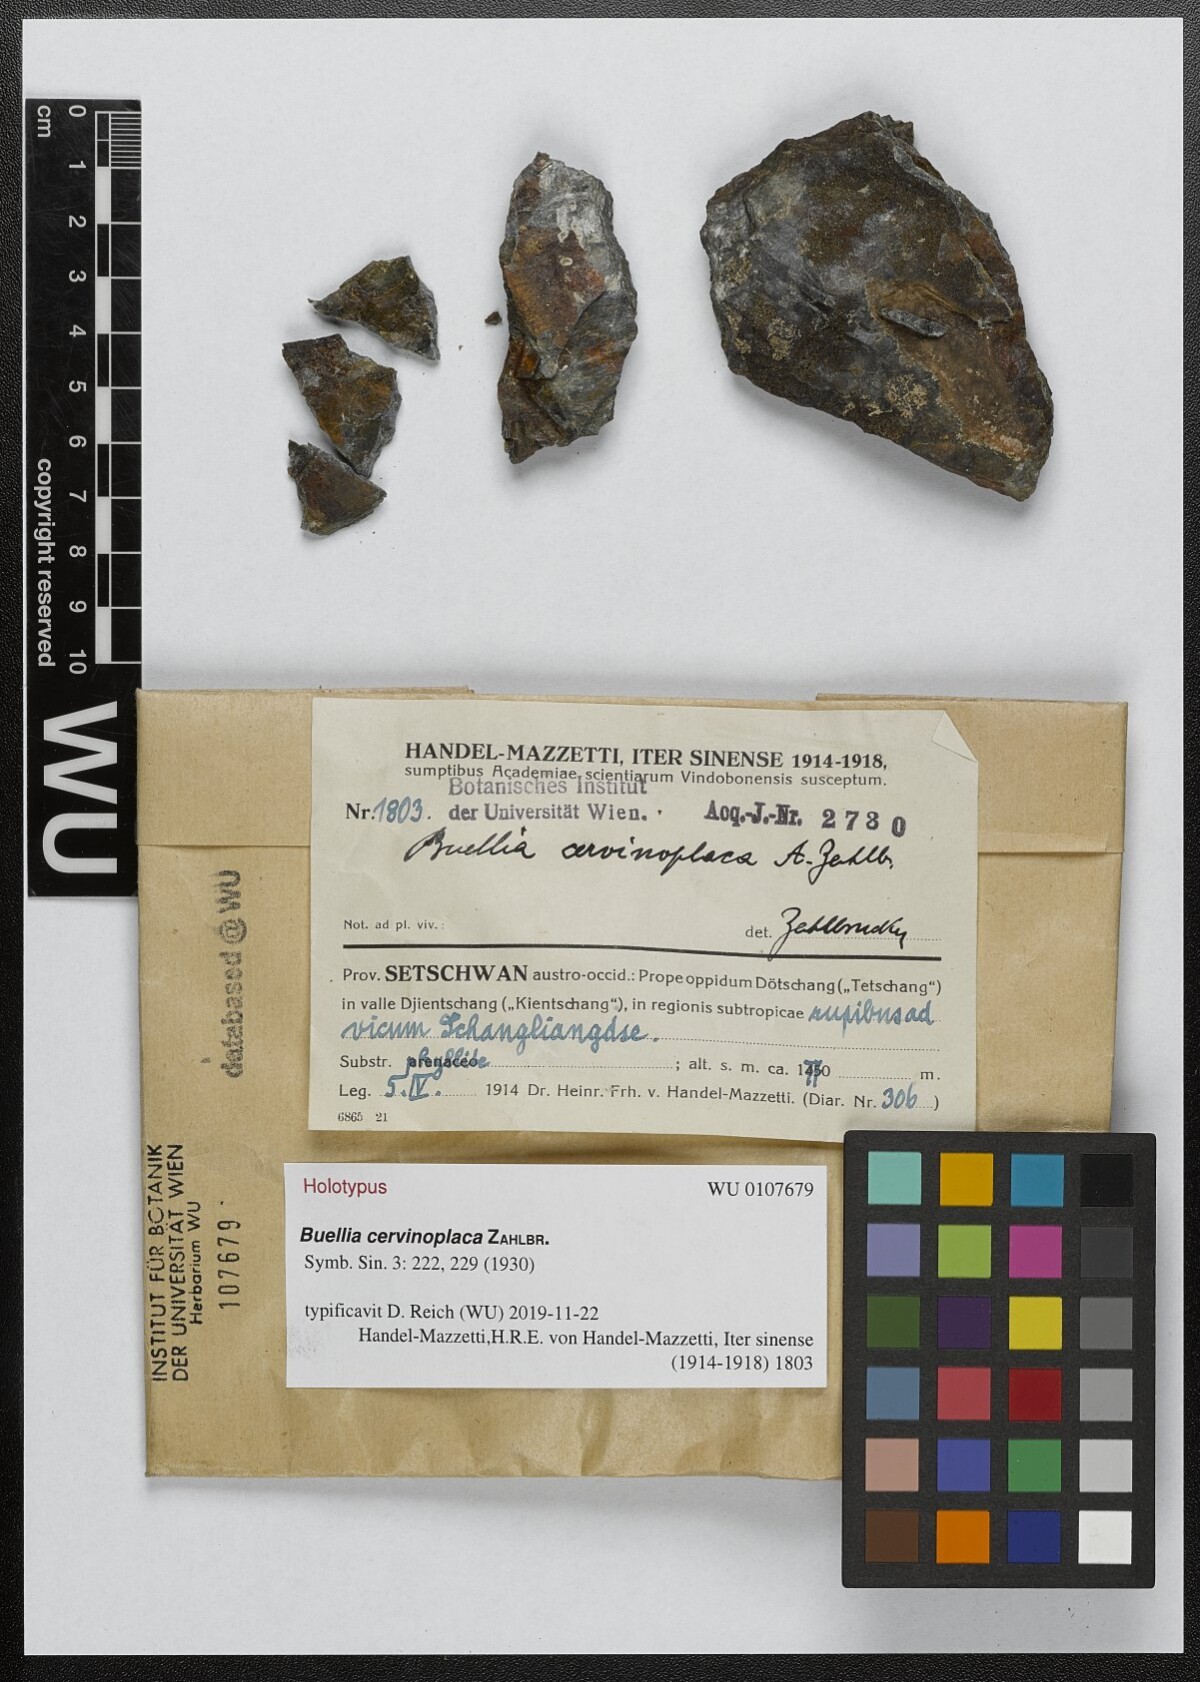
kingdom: Fungi
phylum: Ascomycota
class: Lecanoromycetes
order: Caliciales
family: Physciaceae
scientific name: Physciaceae
